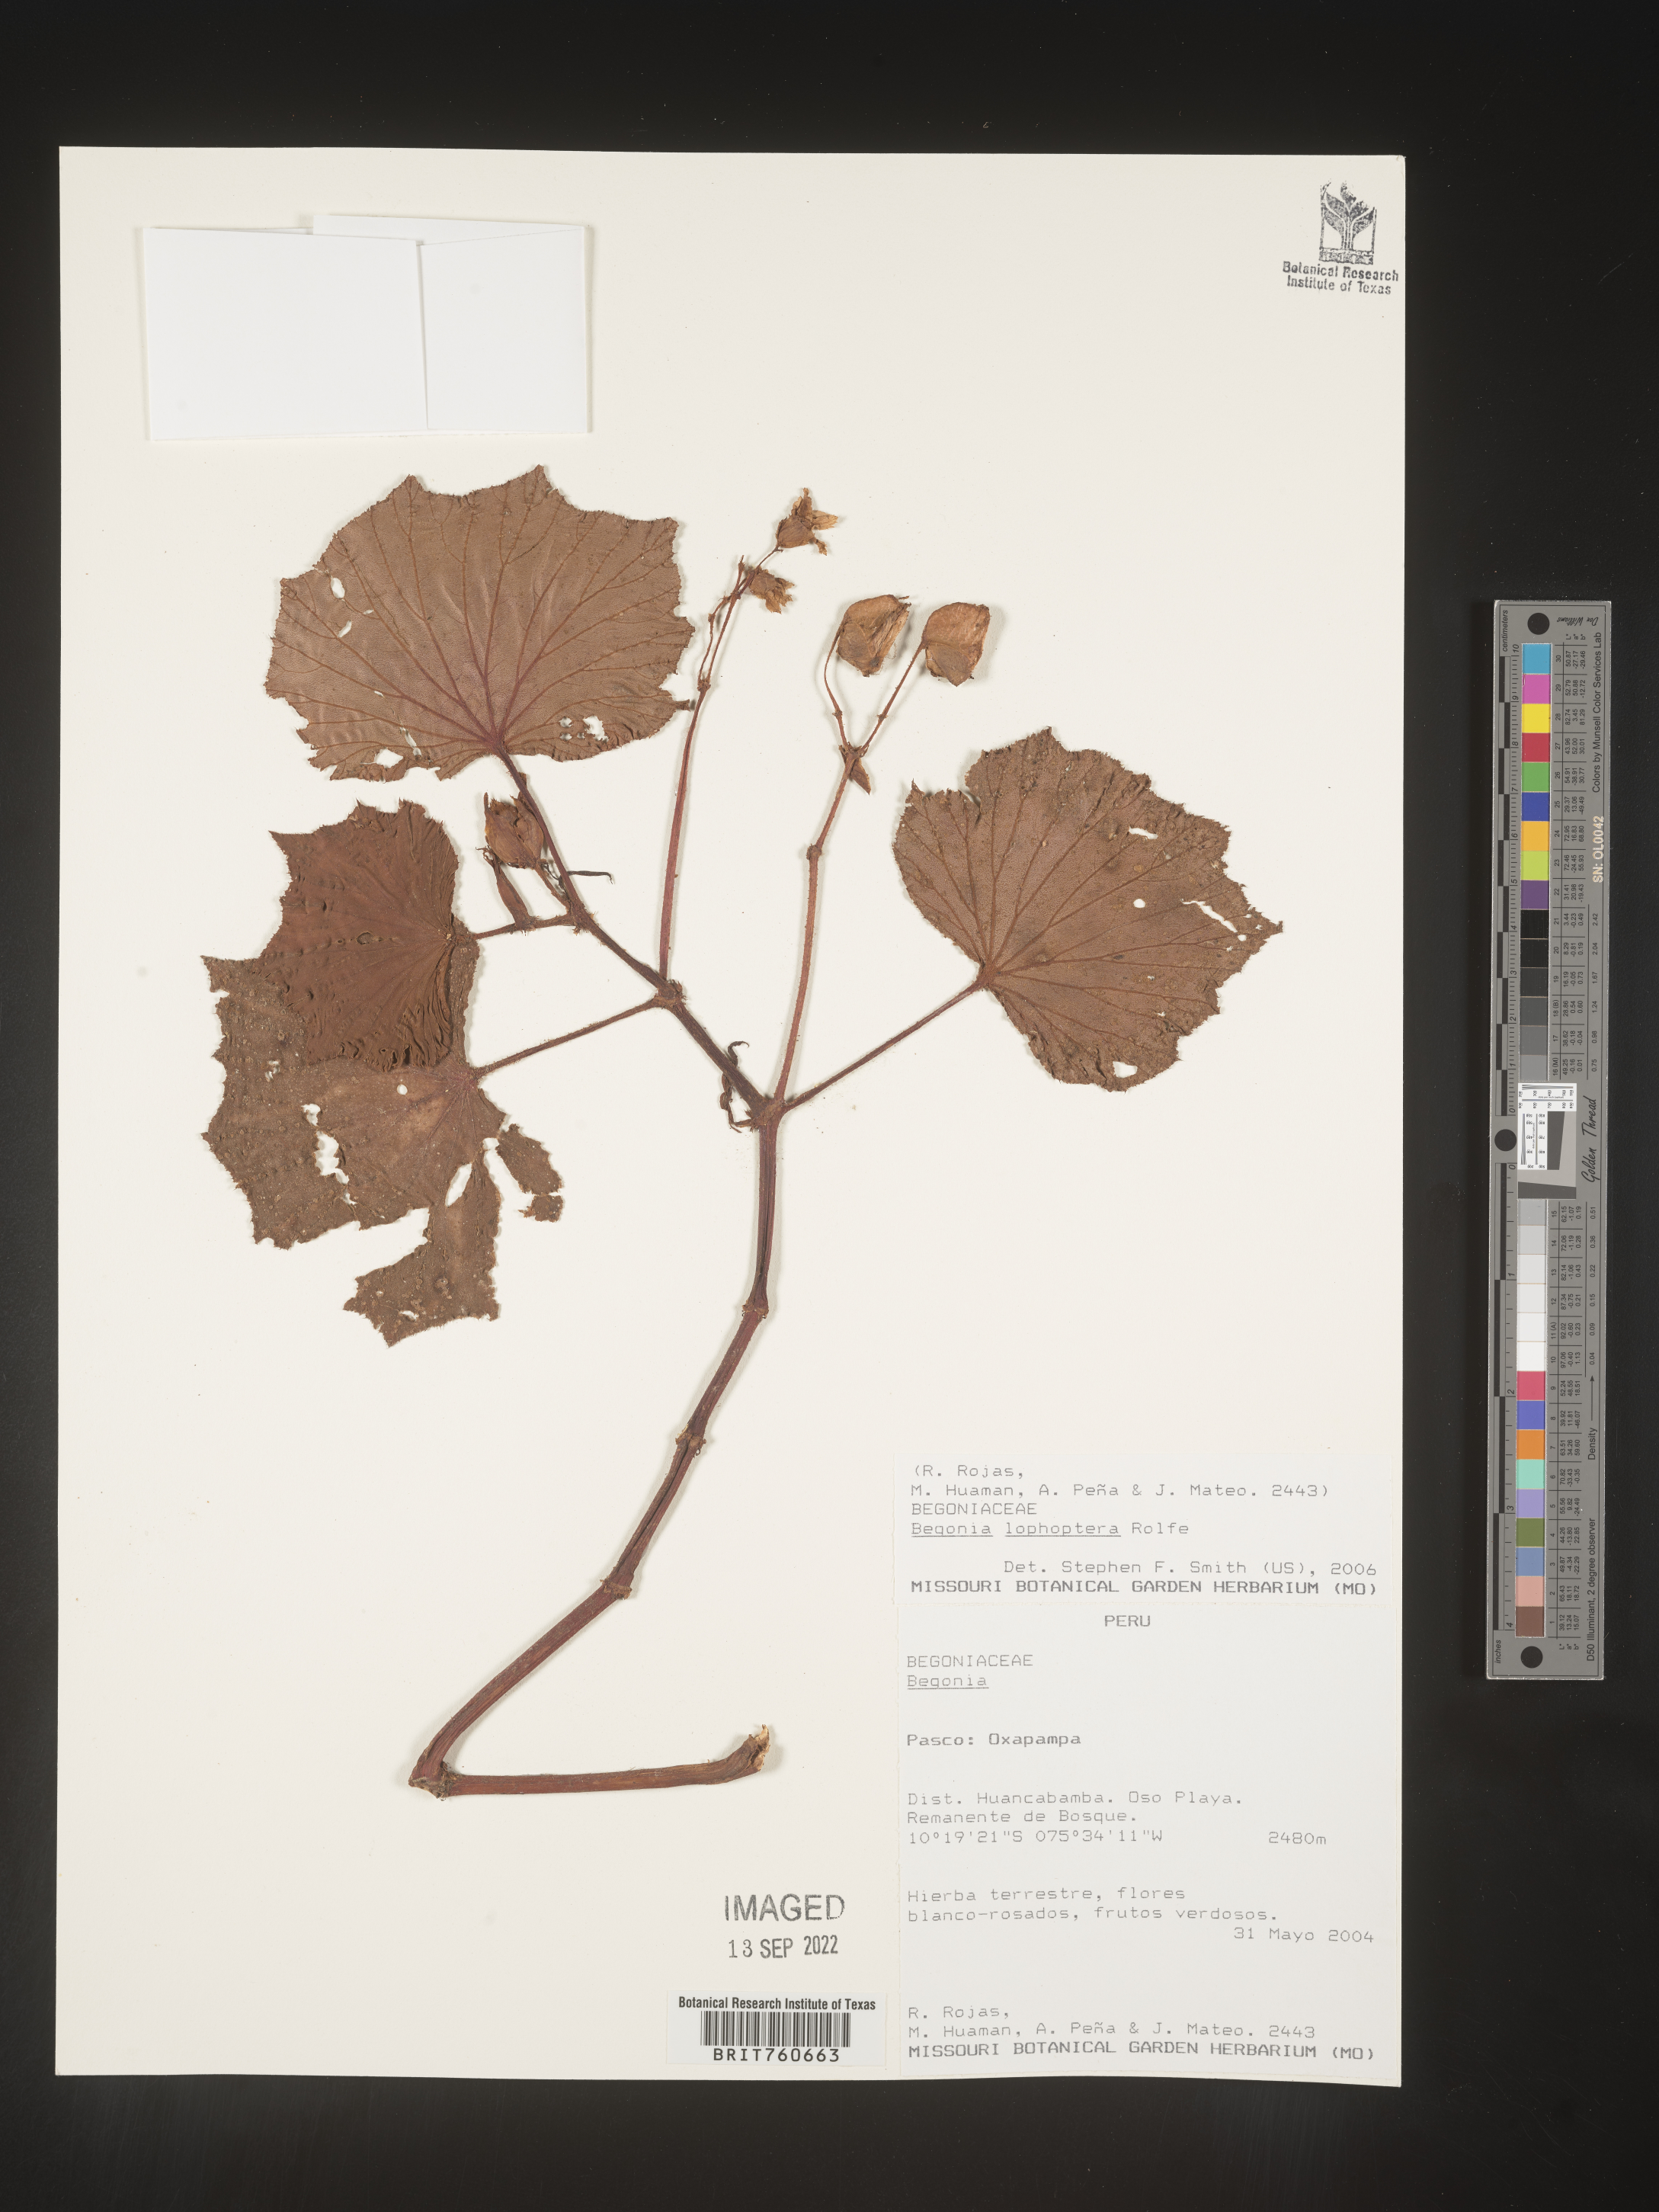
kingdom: Plantae
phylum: Tracheophyta
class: Magnoliopsida
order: Cucurbitales
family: Begoniaceae
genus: Begonia
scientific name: Begonia
